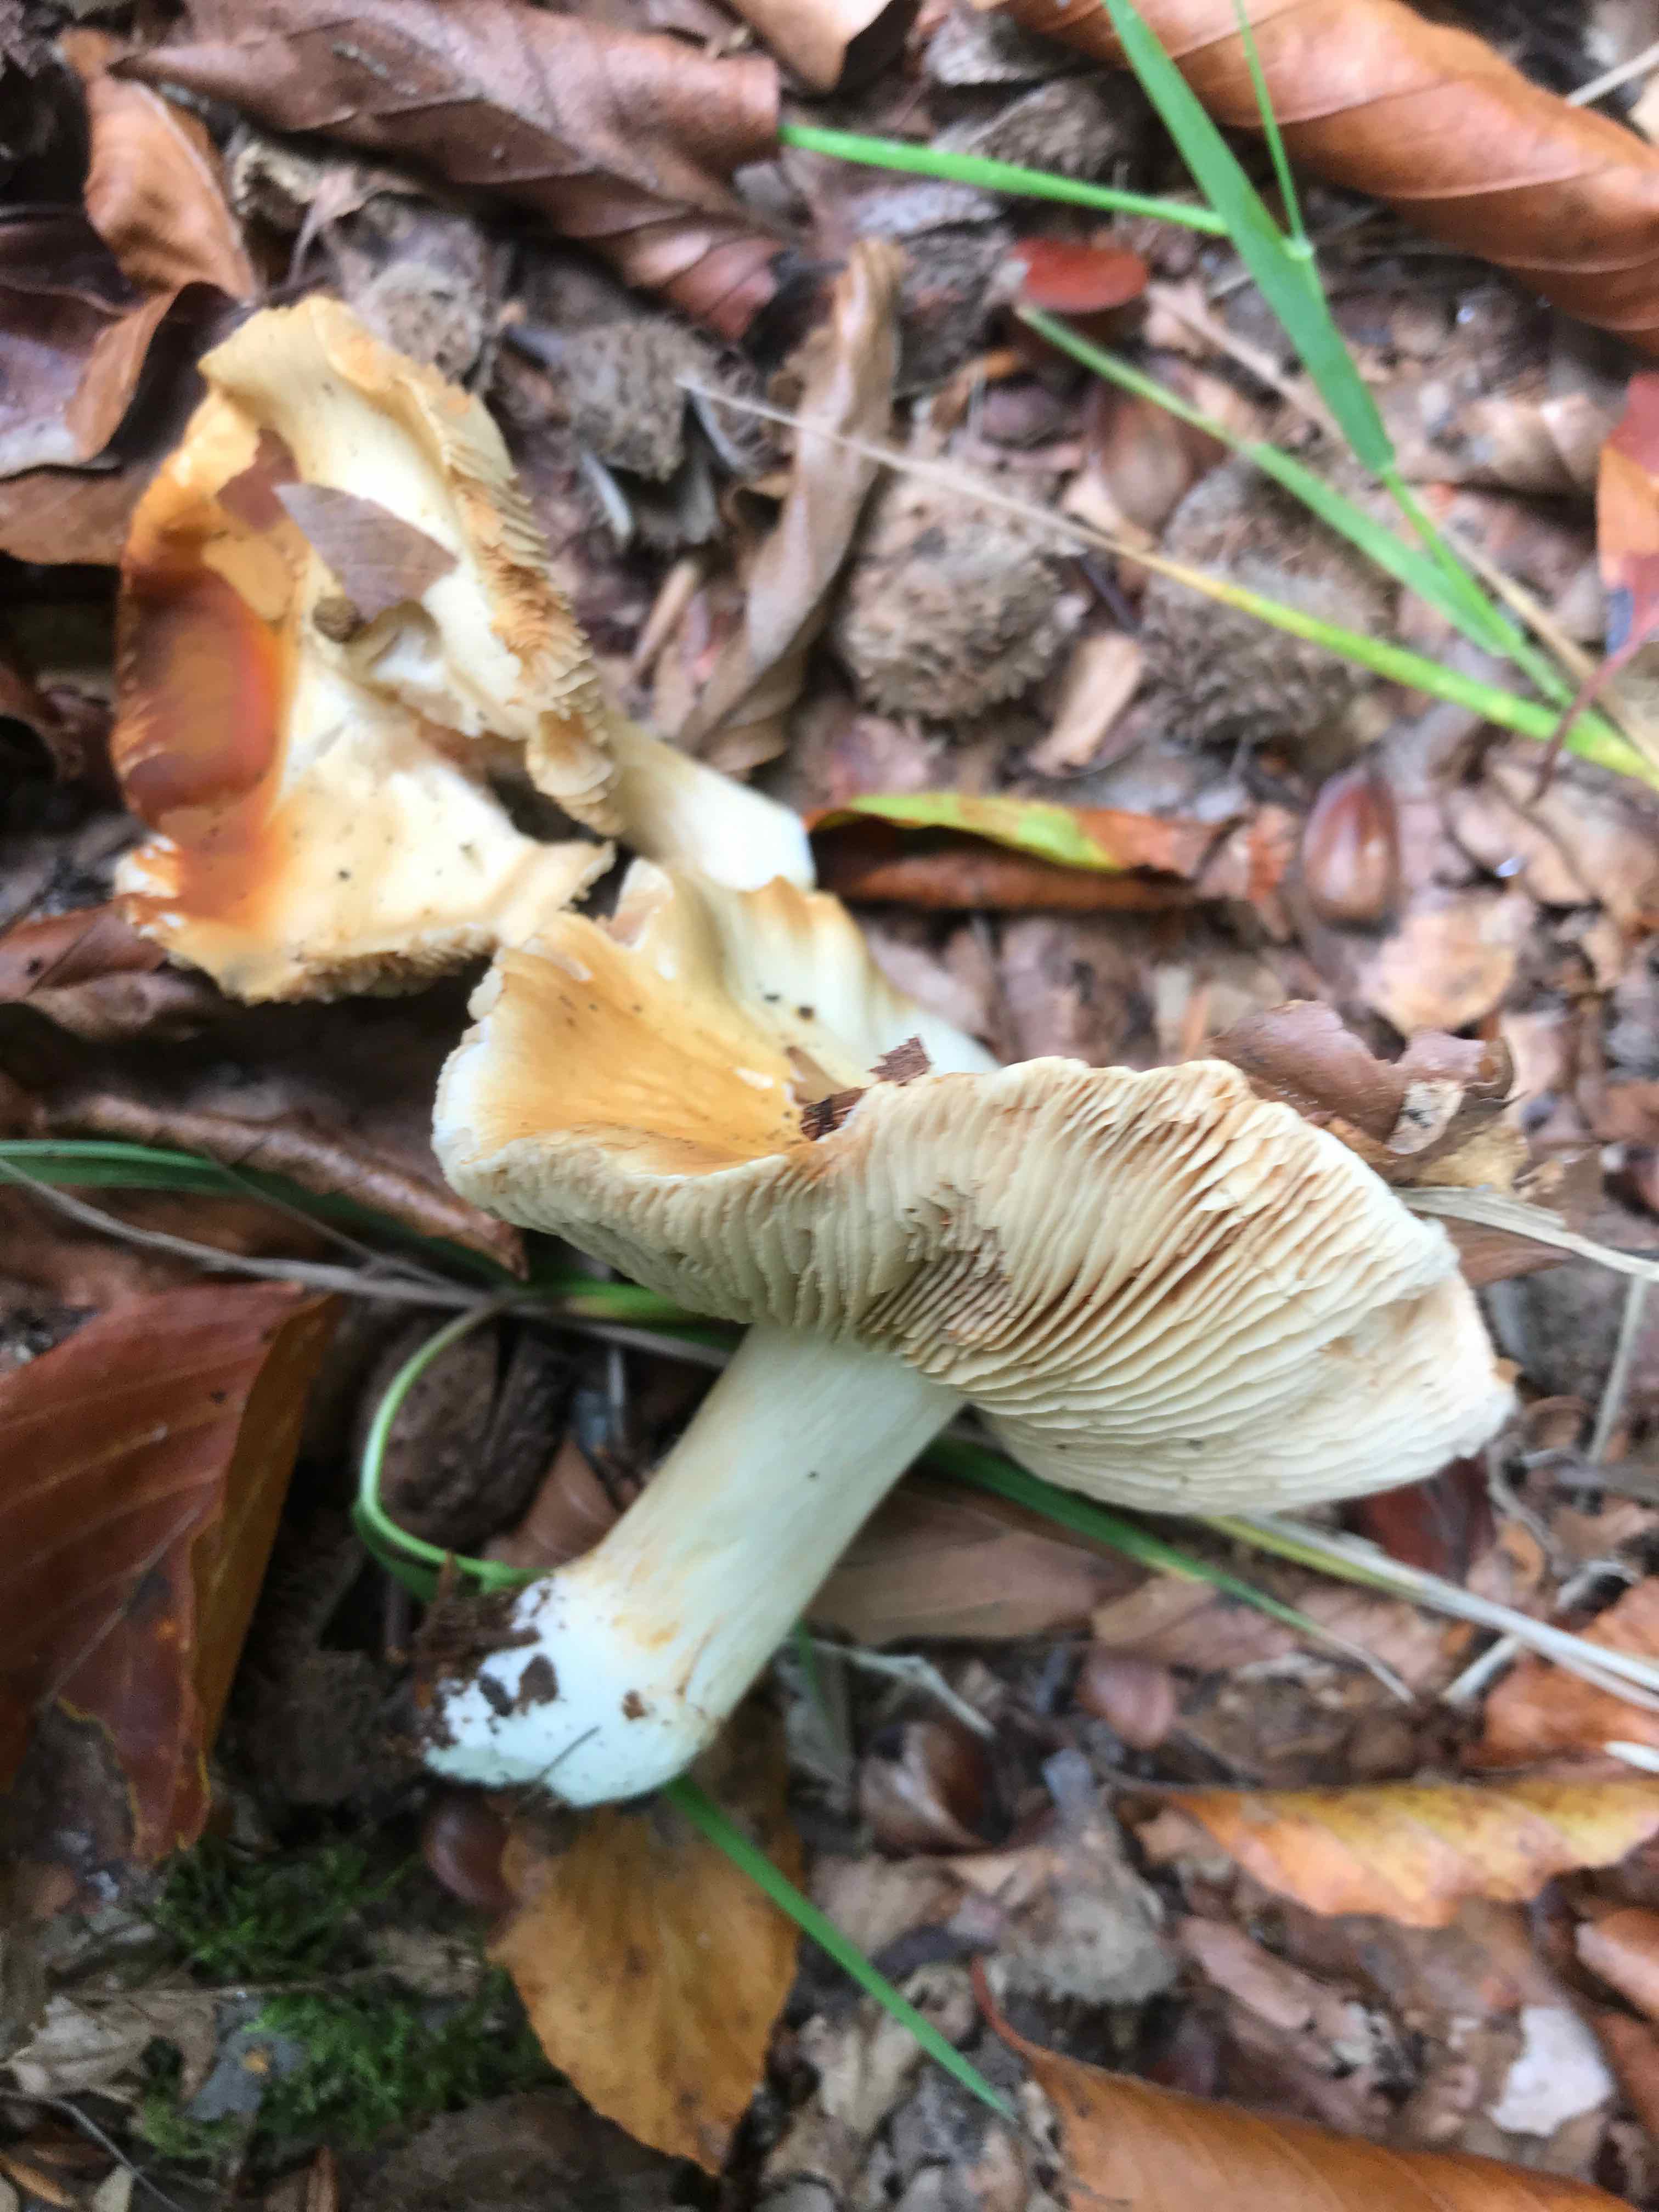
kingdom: Fungi
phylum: Basidiomycota
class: Agaricomycetes
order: Agaricales
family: Cortinariaceae
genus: Cortinarius
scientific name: Cortinarius
